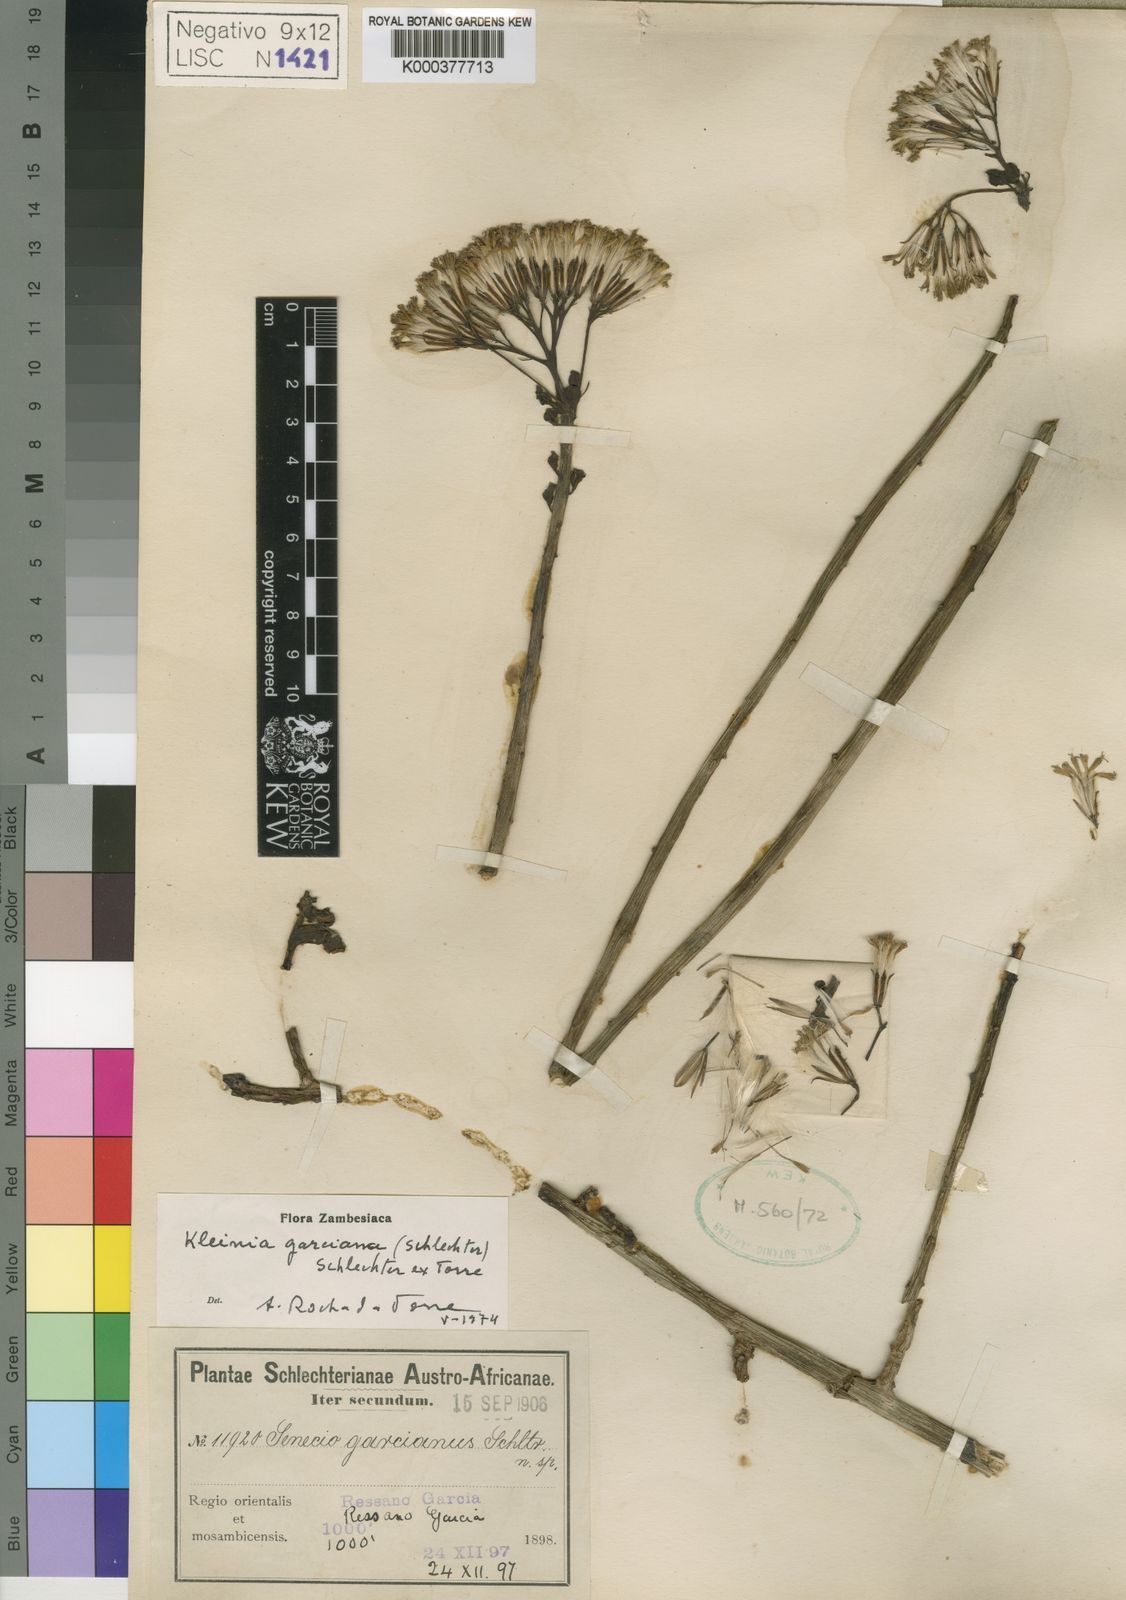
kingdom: Plantae
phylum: Tracheophyta
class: Magnoliopsida
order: Asterales
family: Asteraceae
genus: Kleinia
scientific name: Kleinia
